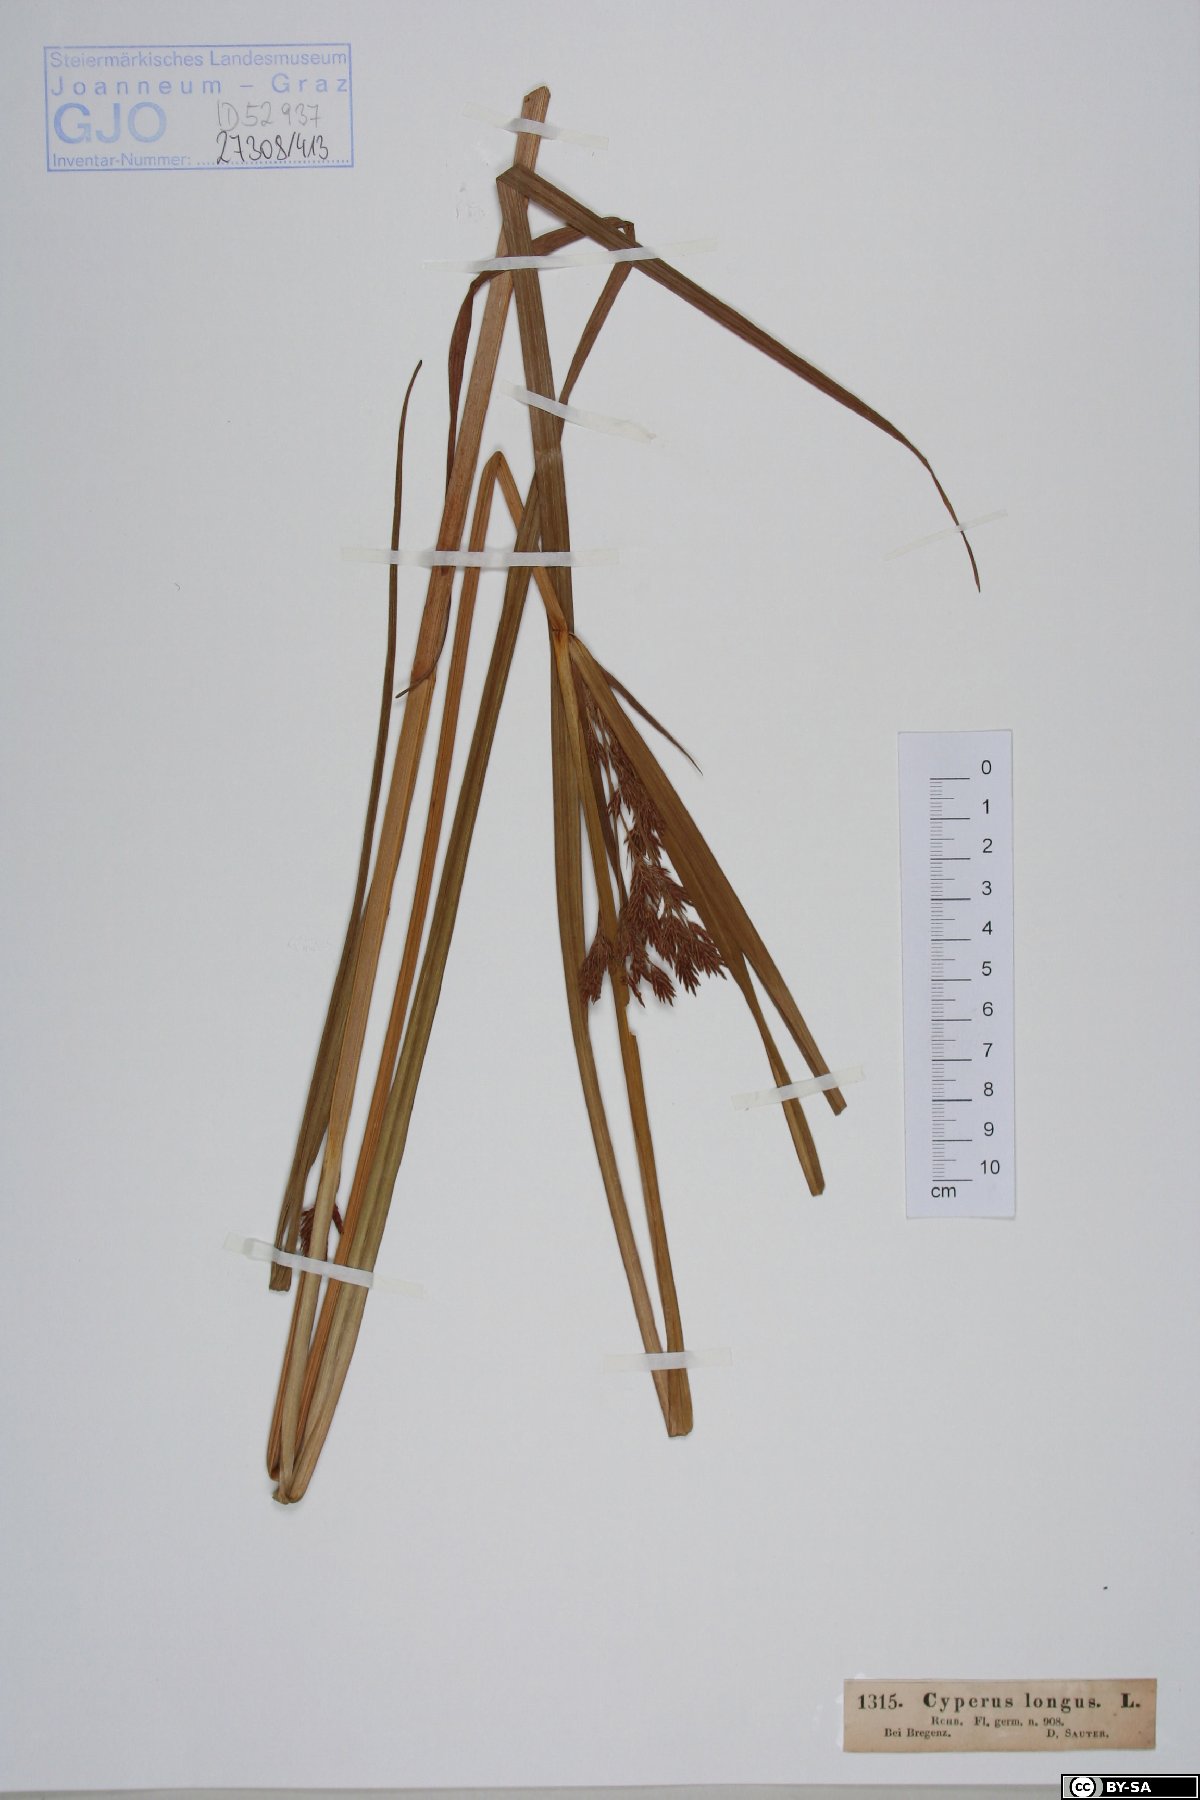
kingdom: Plantae
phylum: Tracheophyta
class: Liliopsida
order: Poales
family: Cyperaceae
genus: Cyperus
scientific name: Cyperus longus
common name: Galingale
